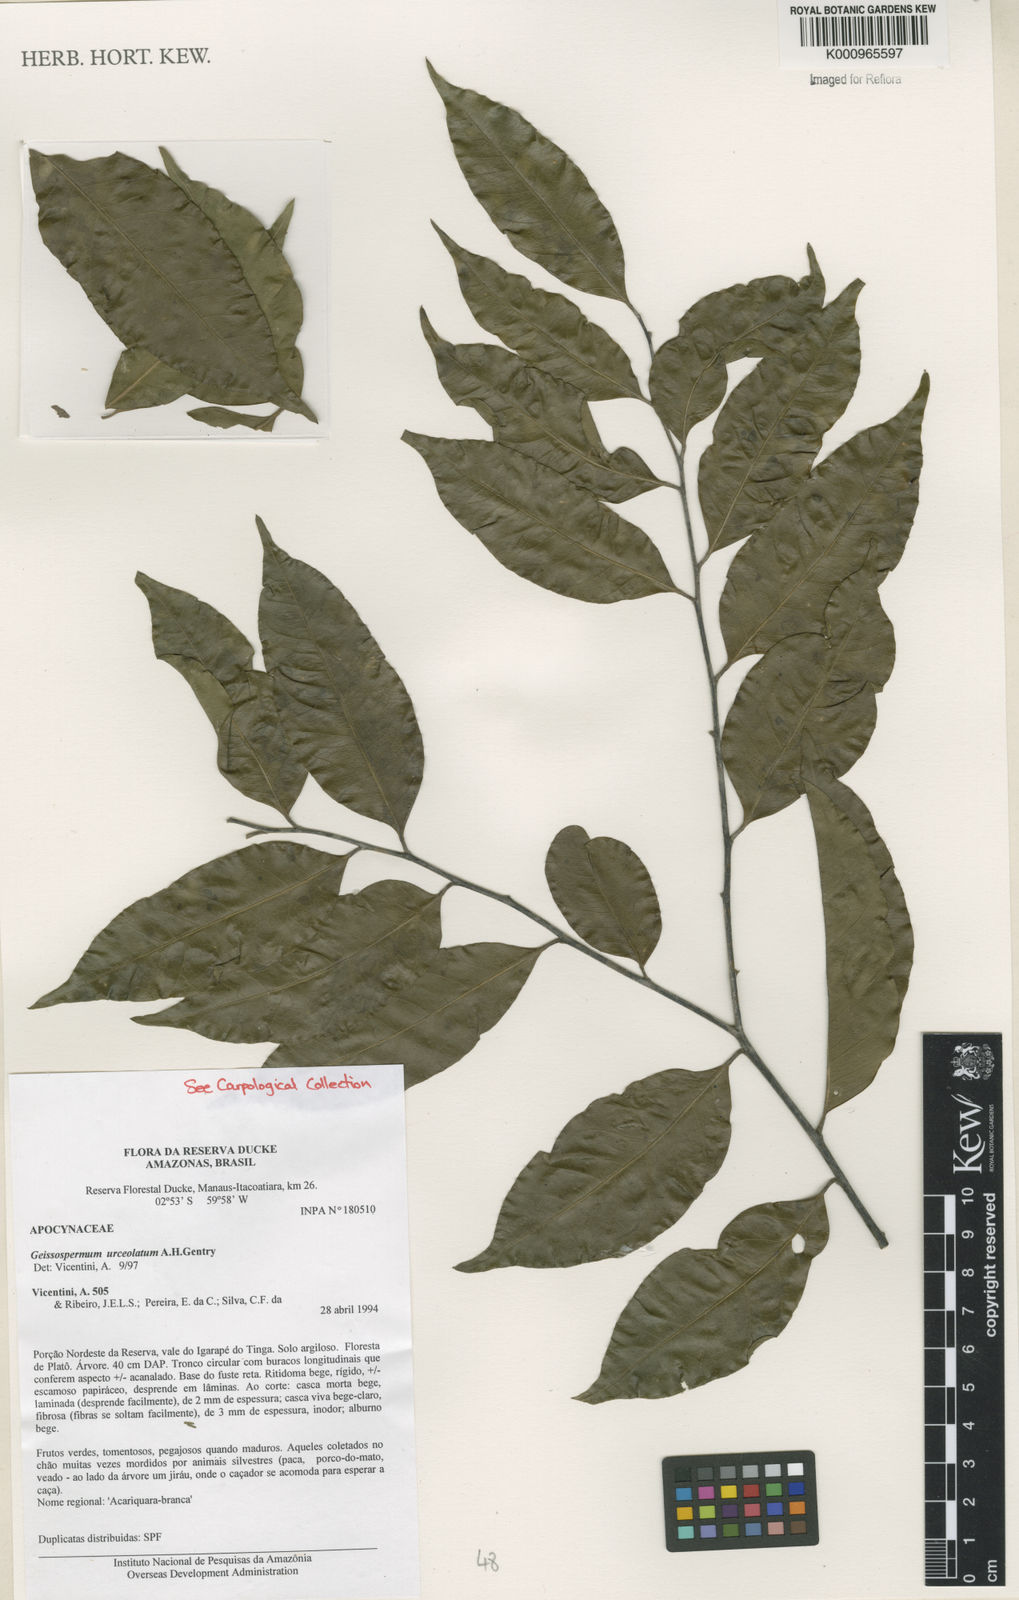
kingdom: Plantae
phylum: Tracheophyta
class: Magnoliopsida
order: Gentianales
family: Apocynaceae
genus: Geissospermum
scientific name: Geissospermum urceolatum
